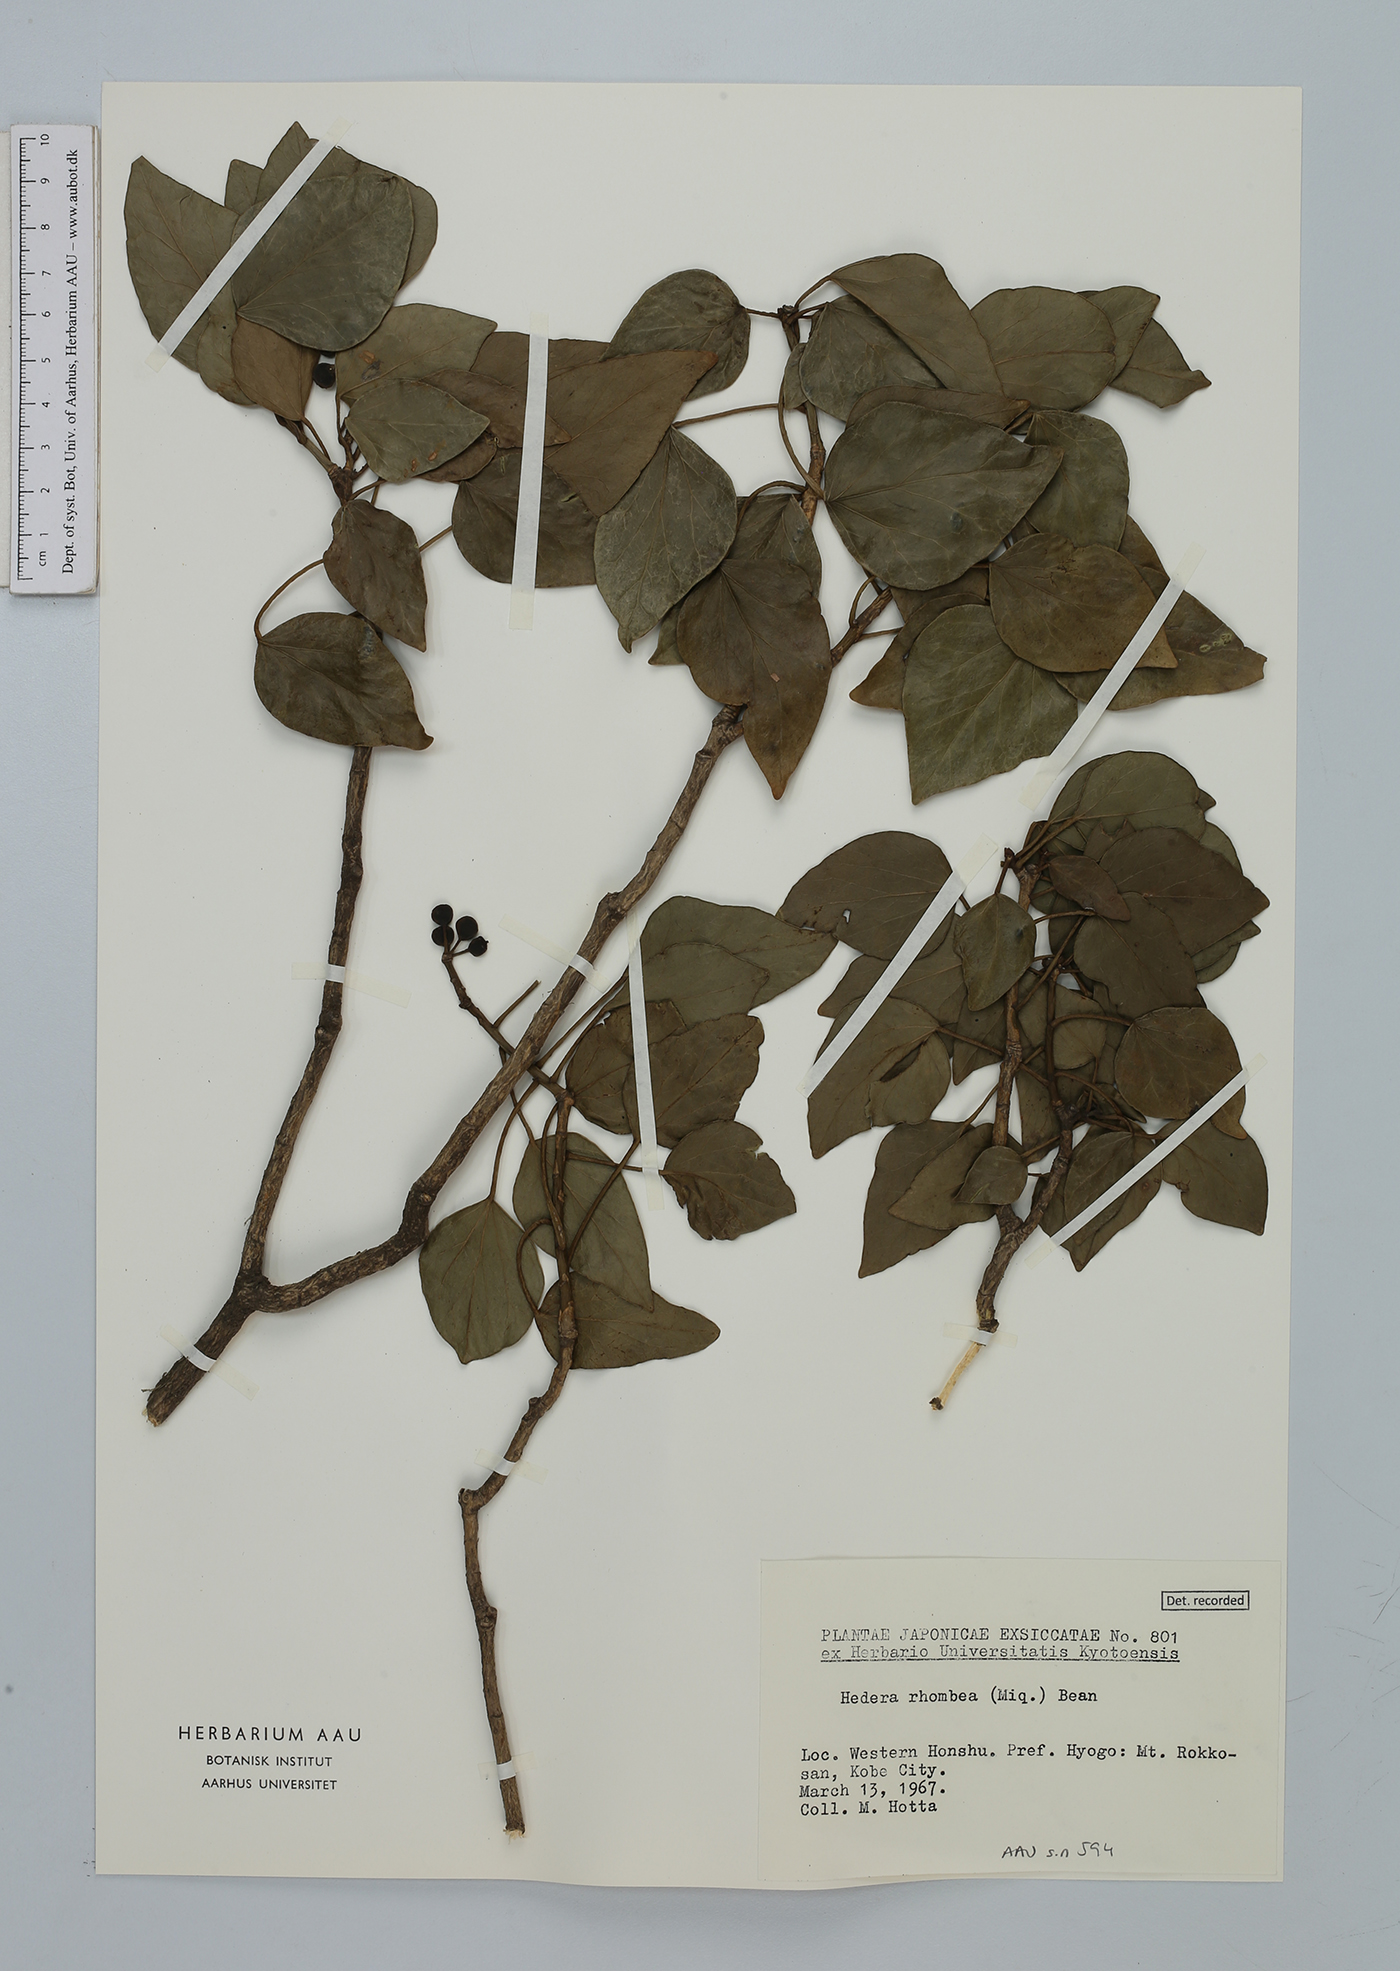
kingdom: Plantae
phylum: Tracheophyta
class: Magnoliopsida
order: Apiales
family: Araliaceae
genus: Hedera
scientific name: Hedera rhombea
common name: Japanese ivy
